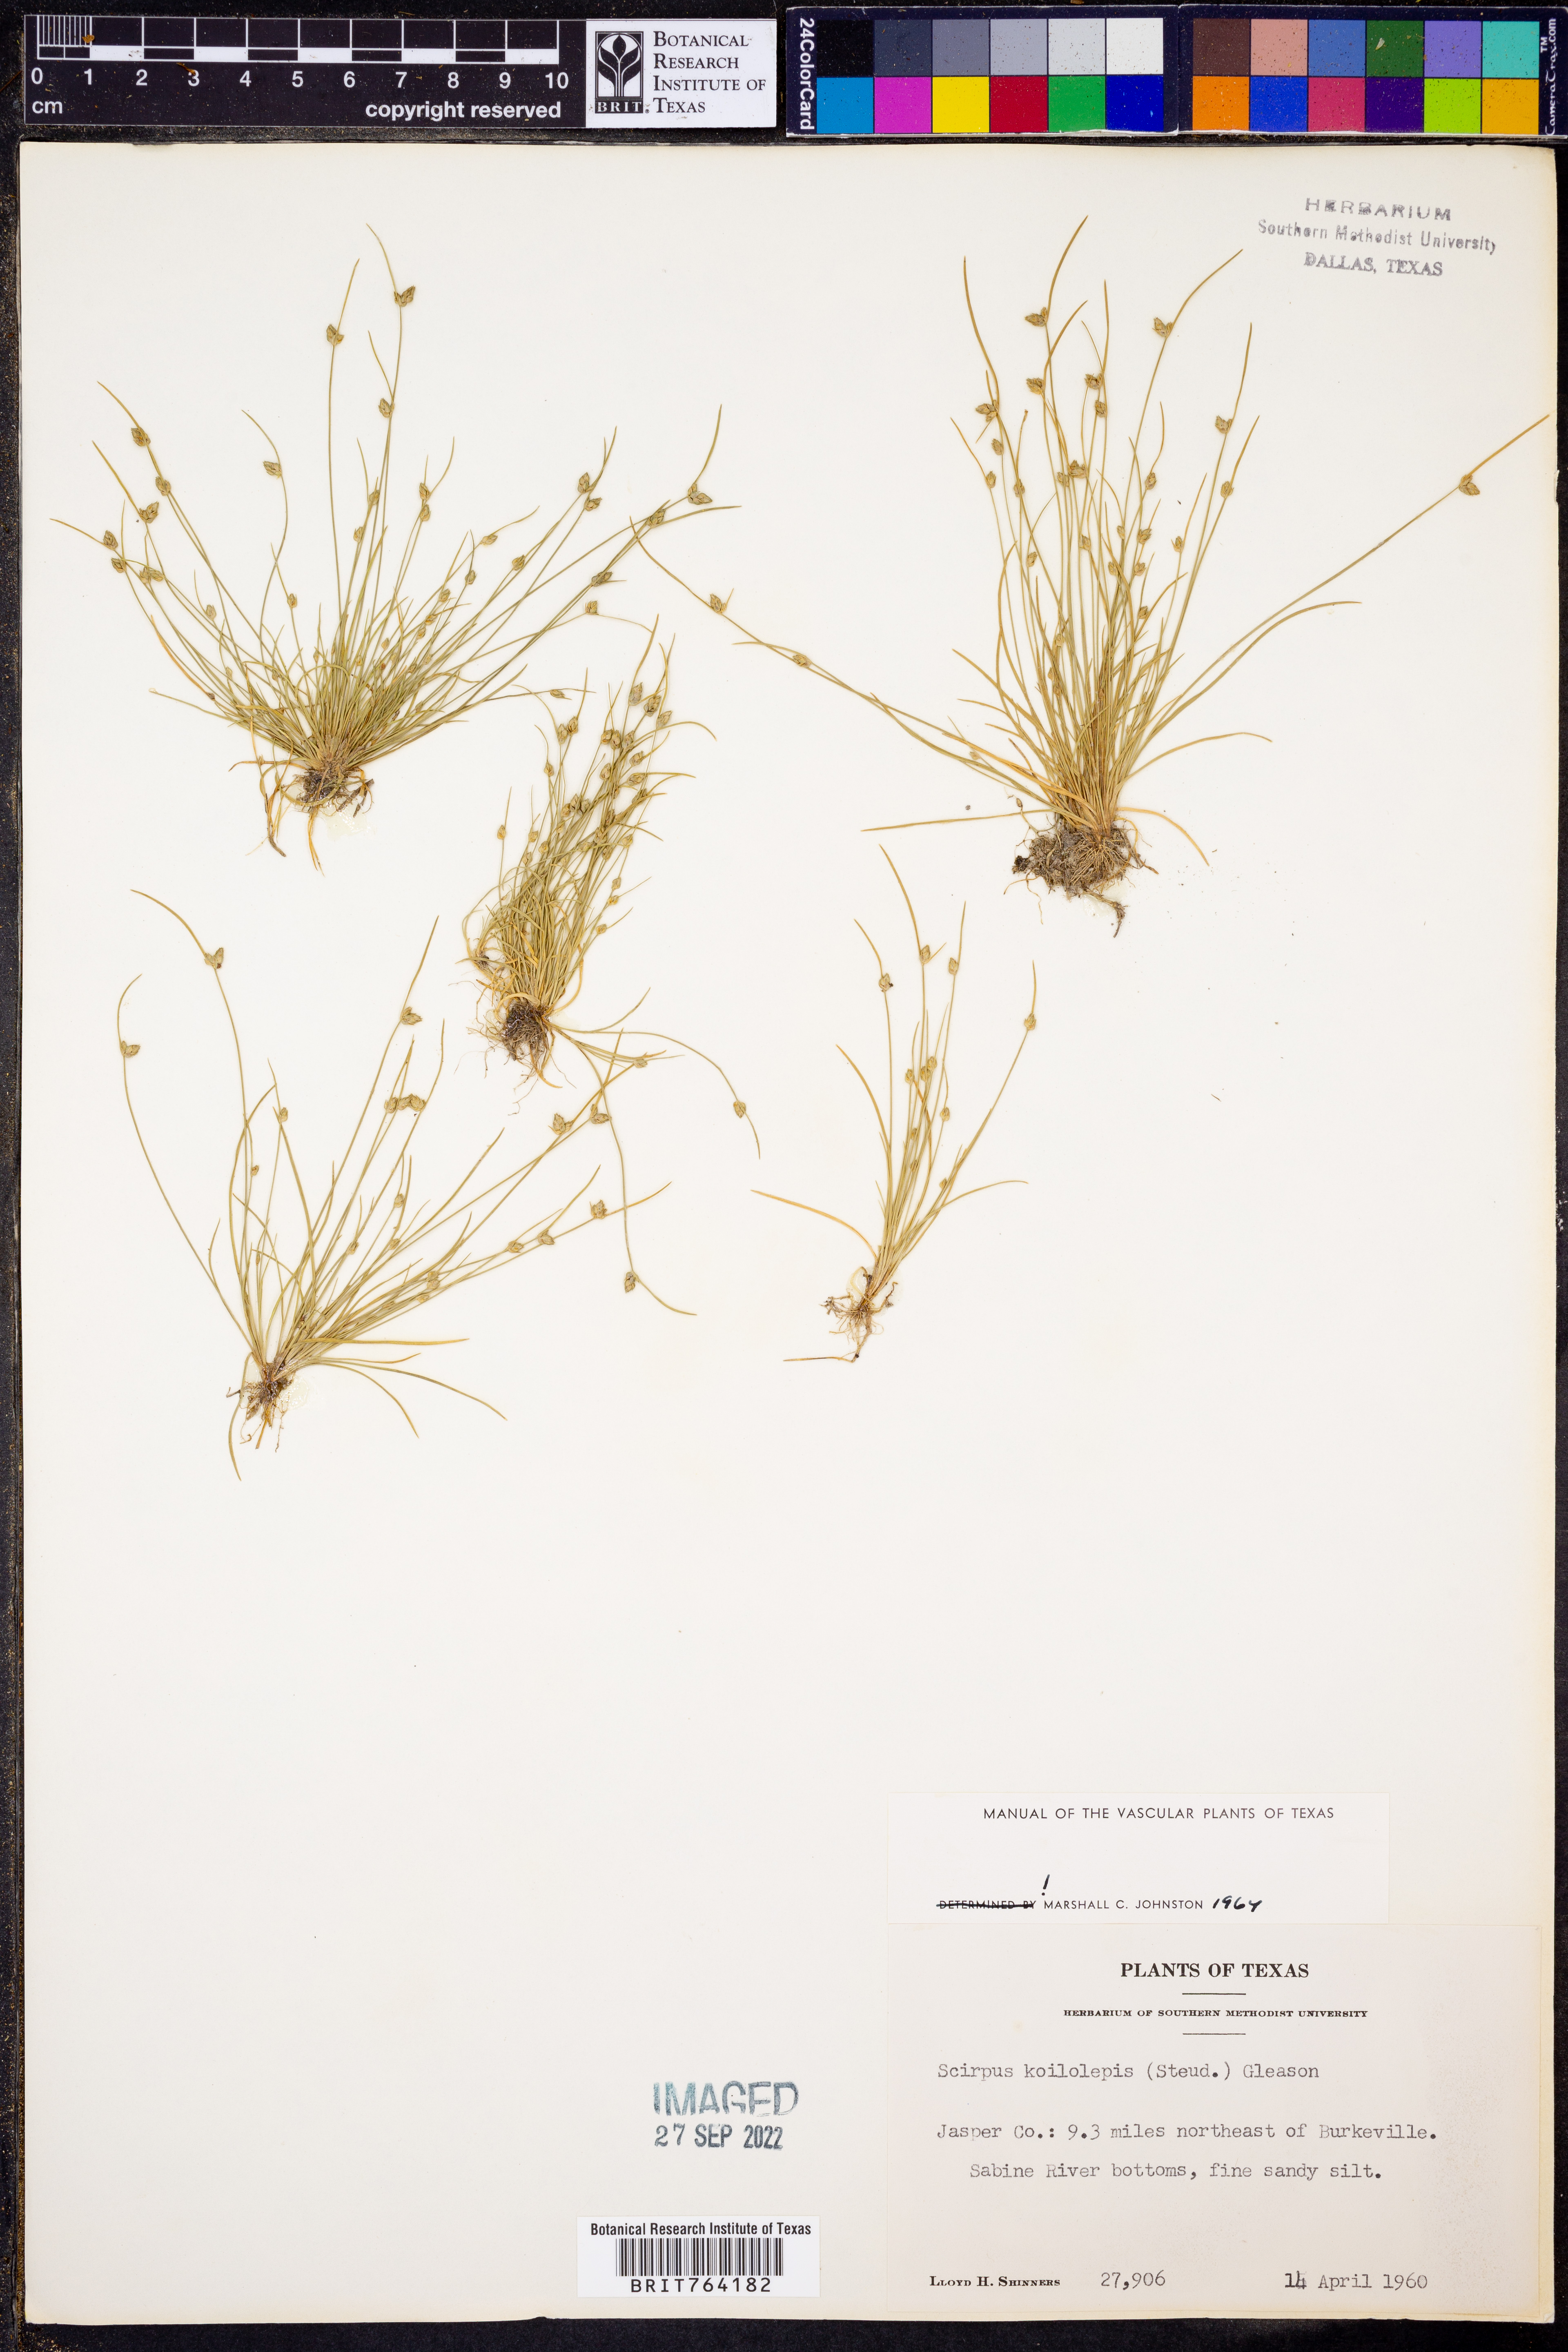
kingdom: Plantae
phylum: Tracheophyta
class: Liliopsida
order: Poales
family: Cyperaceae
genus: Isolepis
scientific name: Isolepis carinata
